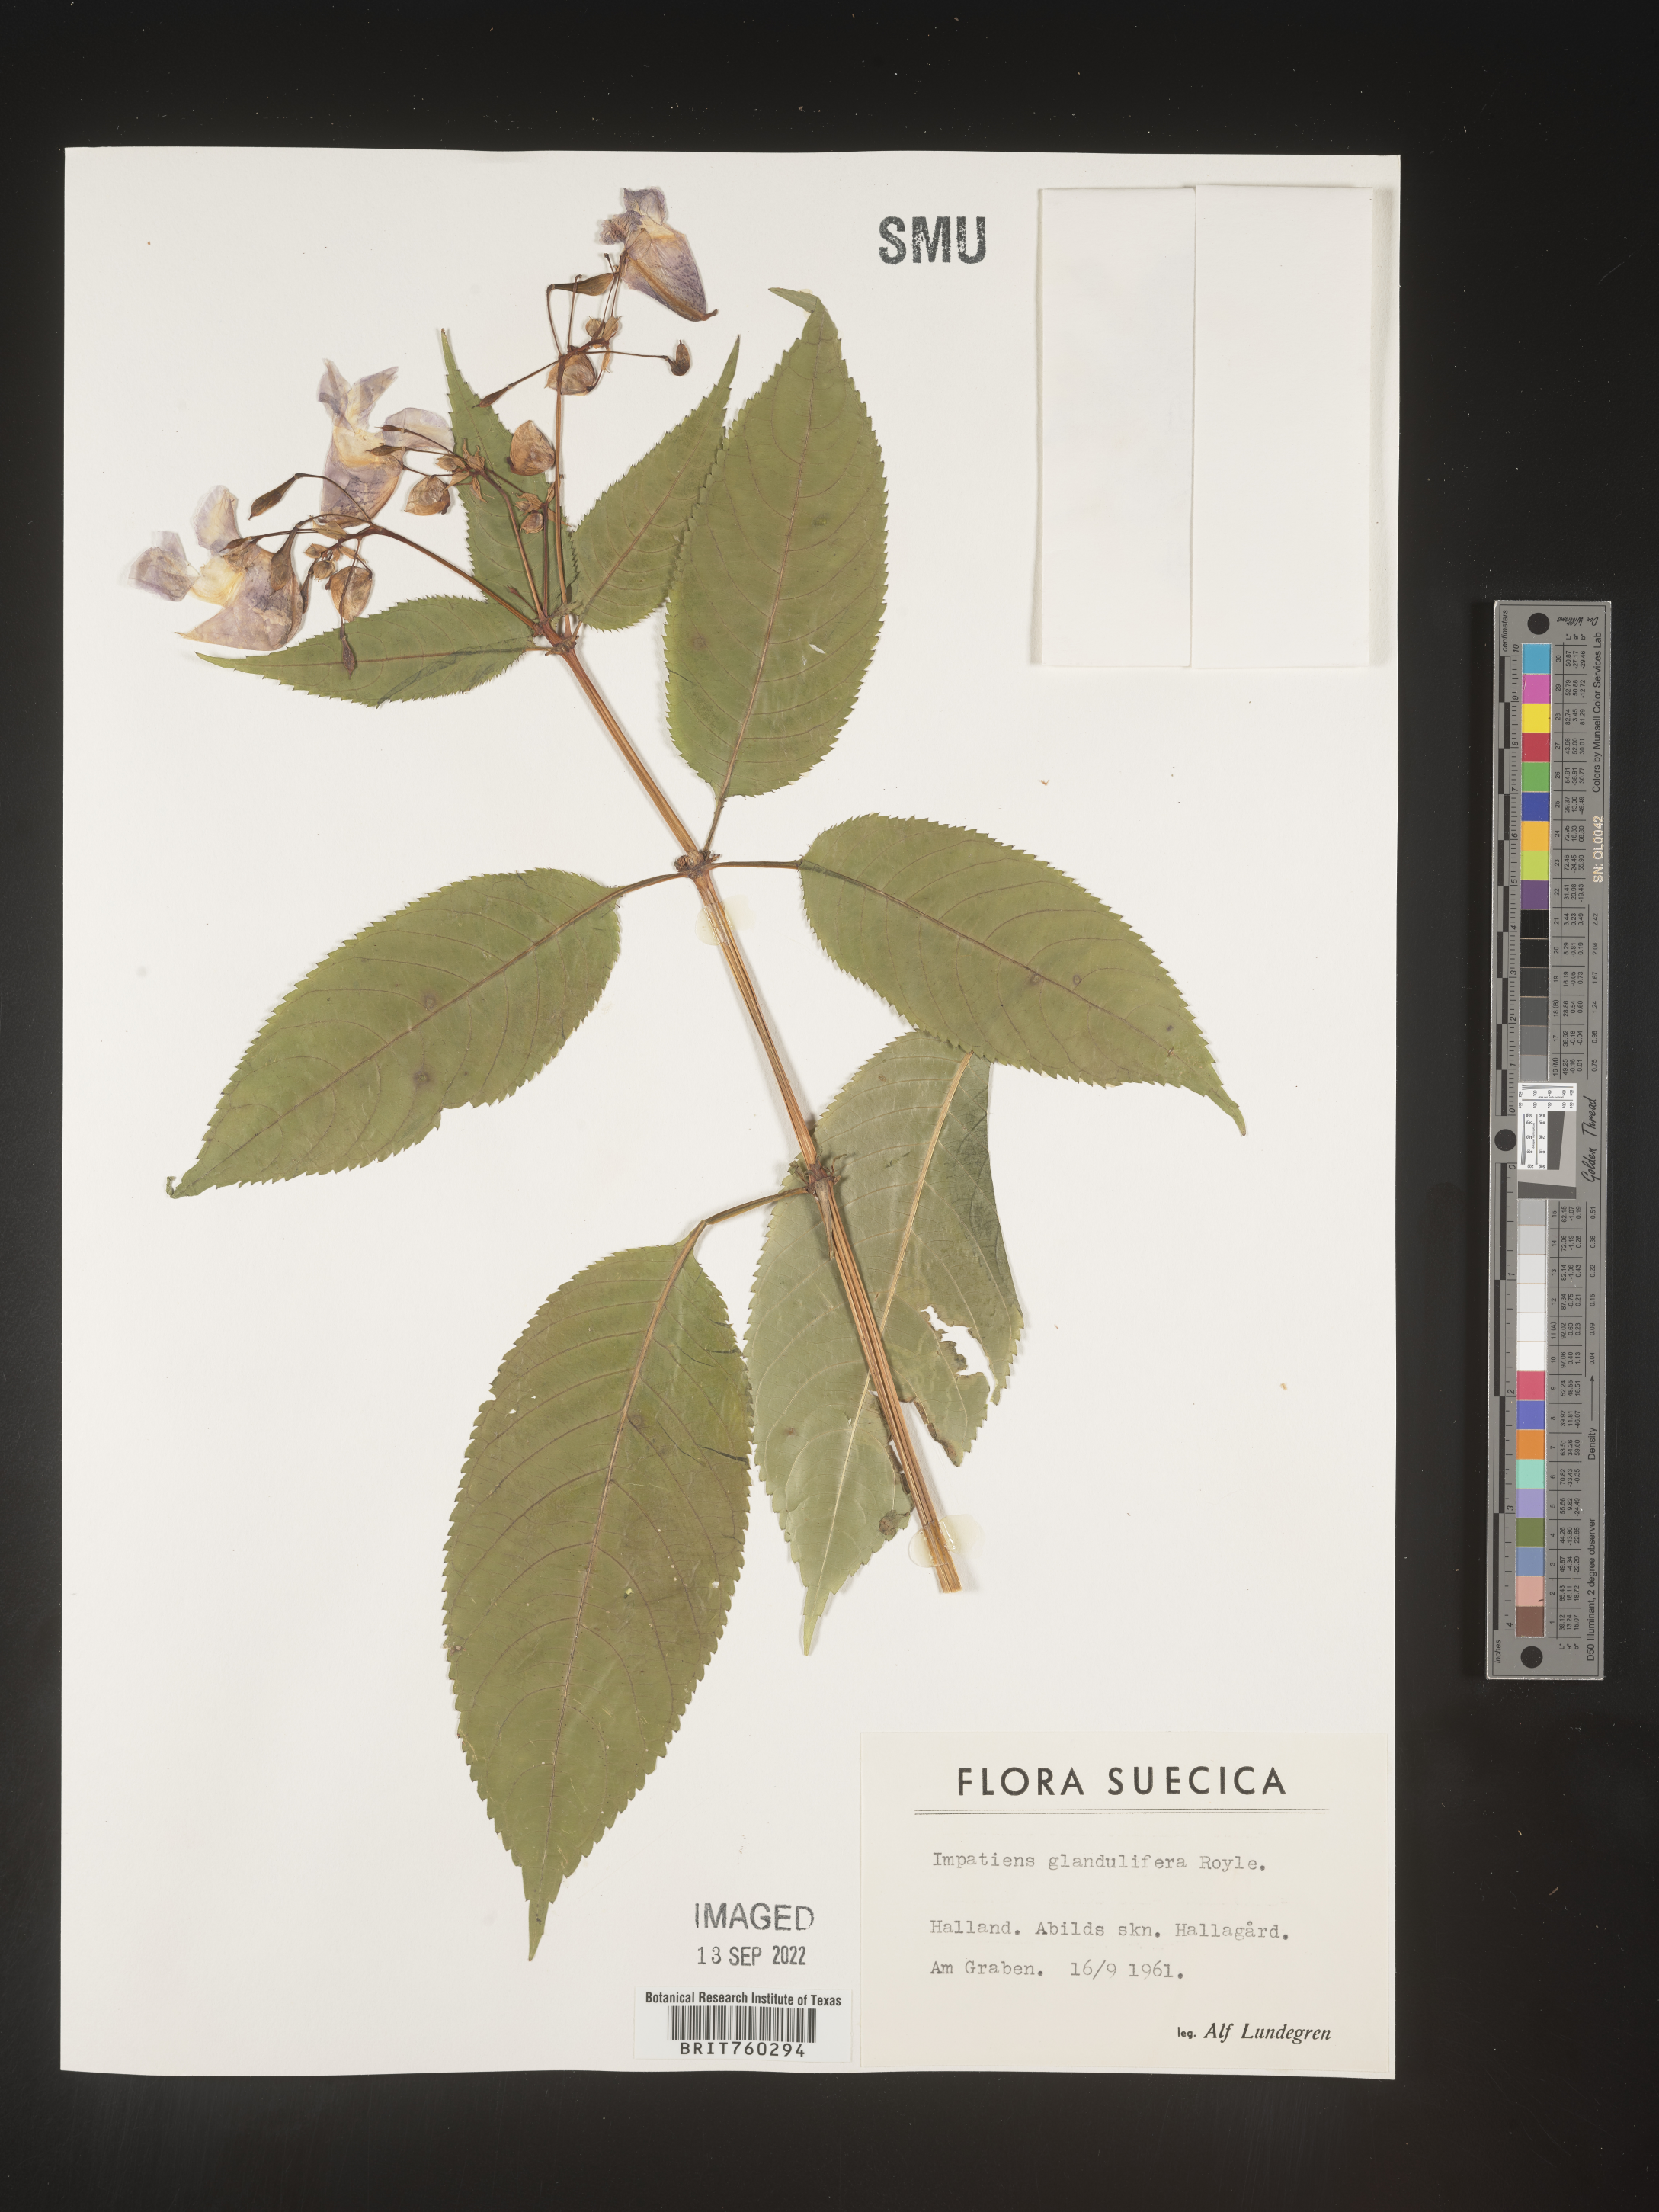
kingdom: Plantae
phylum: Tracheophyta
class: Magnoliopsida
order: Ericales
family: Balsaminaceae
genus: Impatiens
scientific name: Impatiens
